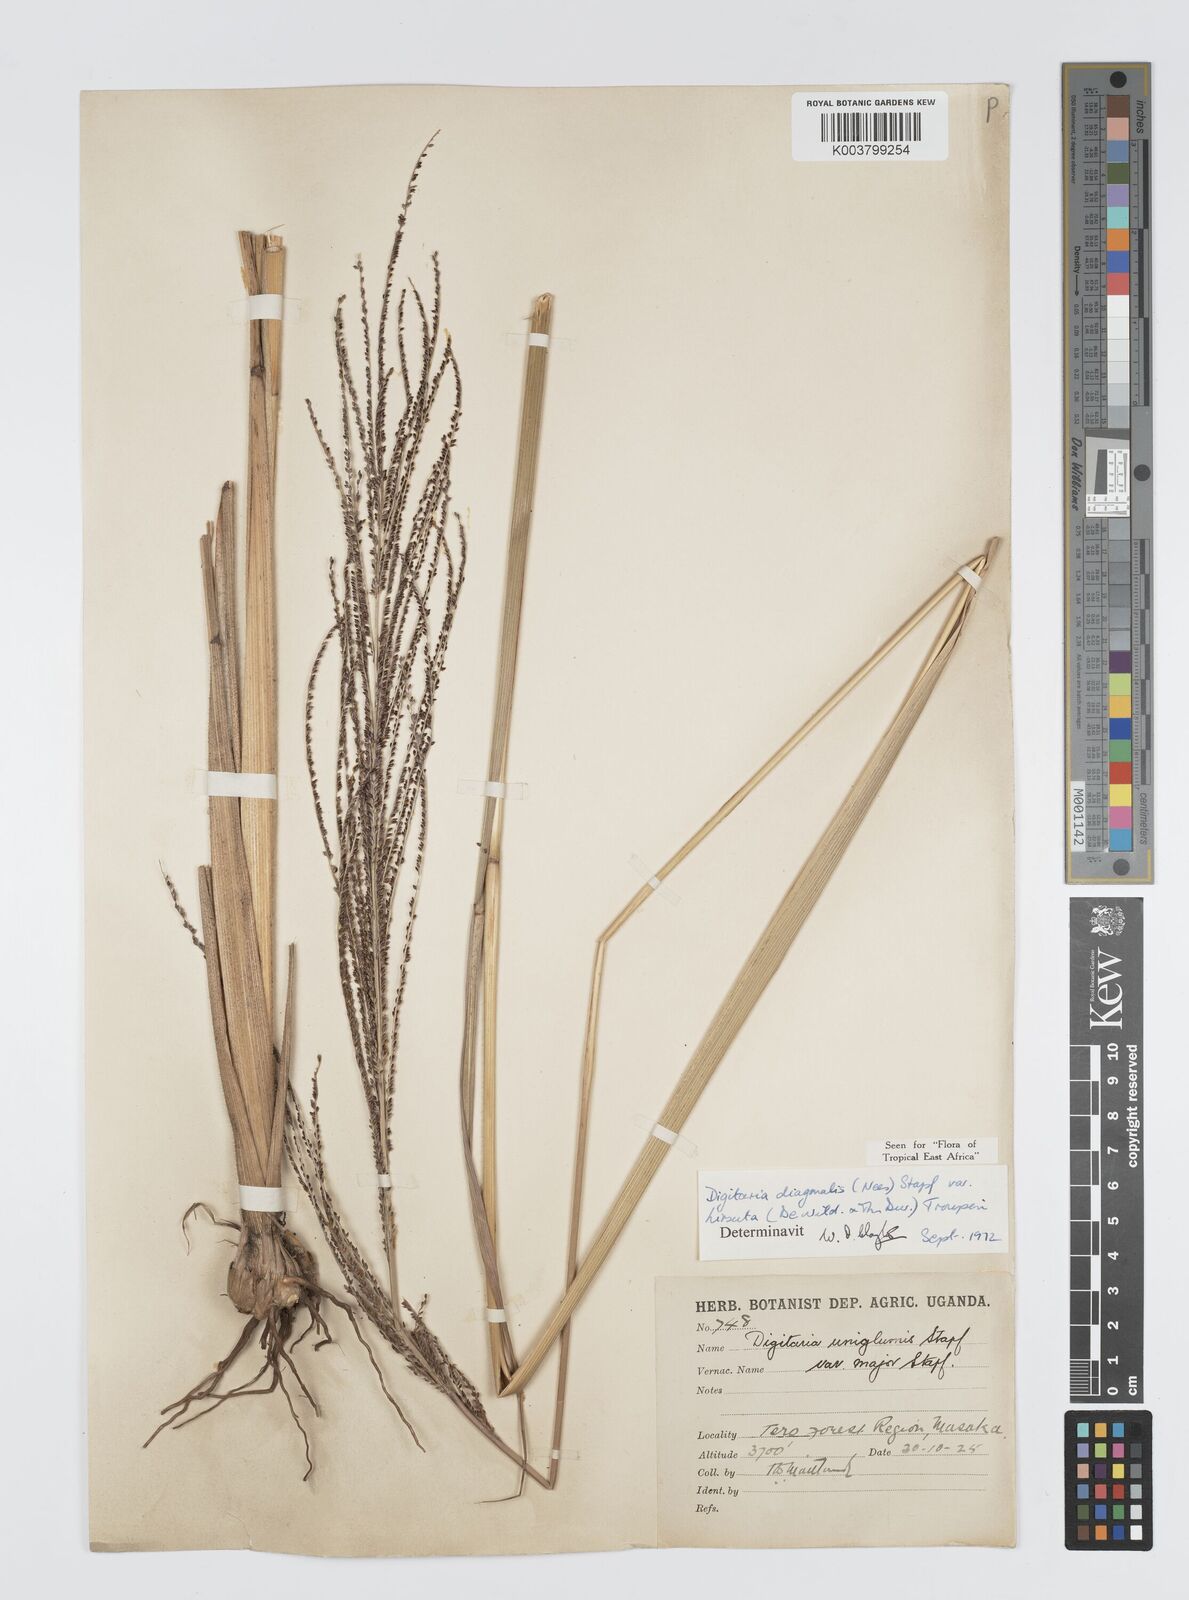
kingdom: Plantae
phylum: Tracheophyta
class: Liliopsida
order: Poales
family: Poaceae
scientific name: Poaceae
